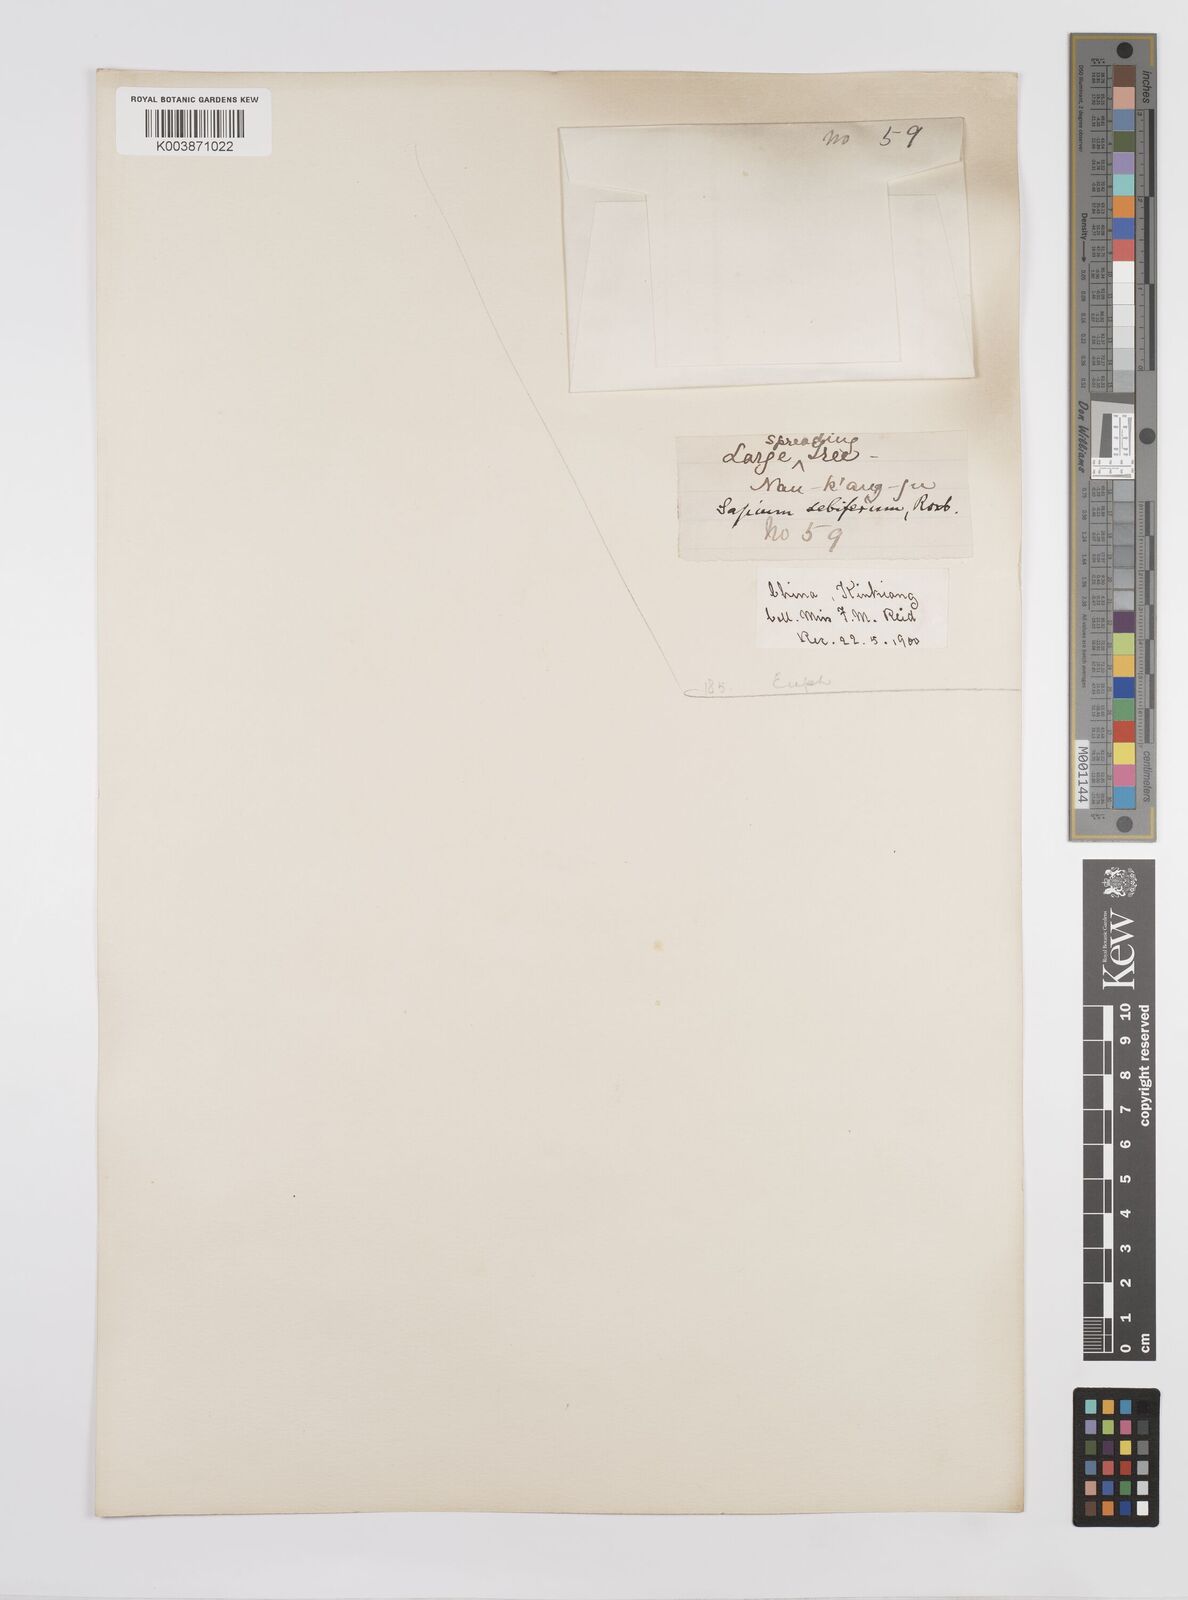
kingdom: Plantae
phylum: Tracheophyta
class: Magnoliopsida
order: Malpighiales
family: Euphorbiaceae
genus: Triadica
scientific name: Triadica sebifera
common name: Chinese tallow
